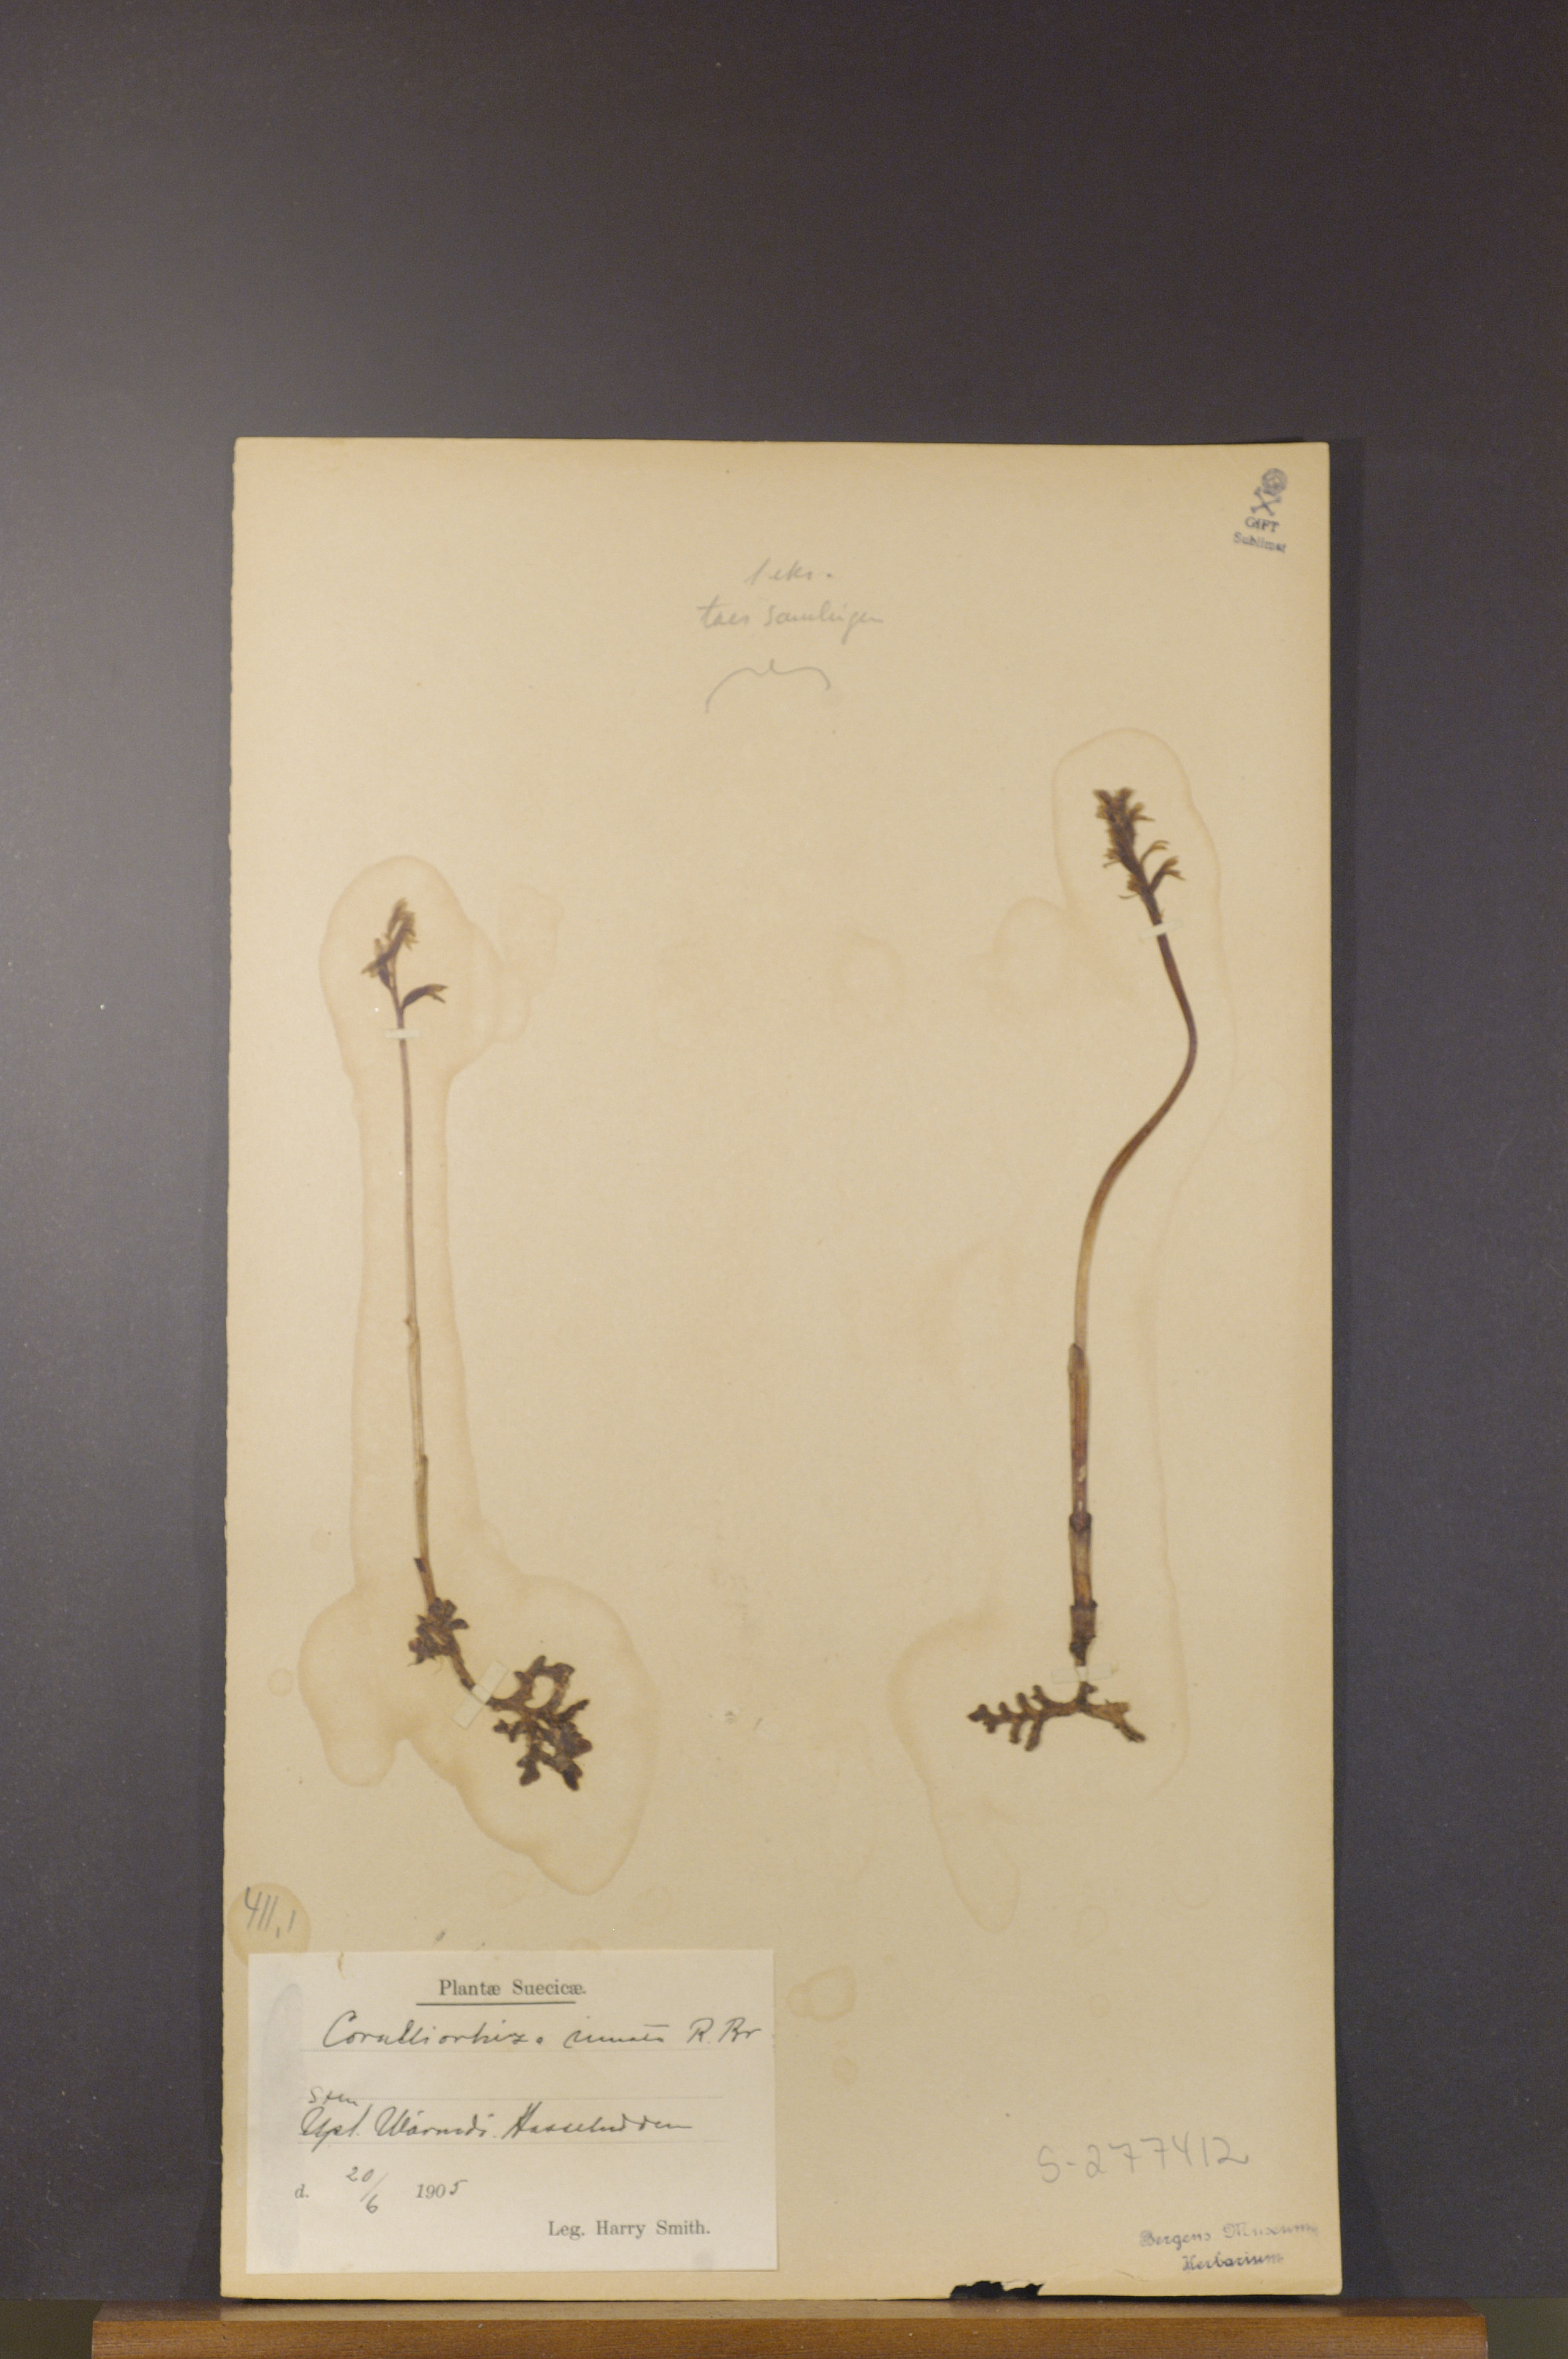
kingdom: Plantae
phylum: Tracheophyta
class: Liliopsida
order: Asparagales
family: Orchidaceae
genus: Corallorhiza
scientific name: Corallorhiza trifida
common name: Yellow coralroot
